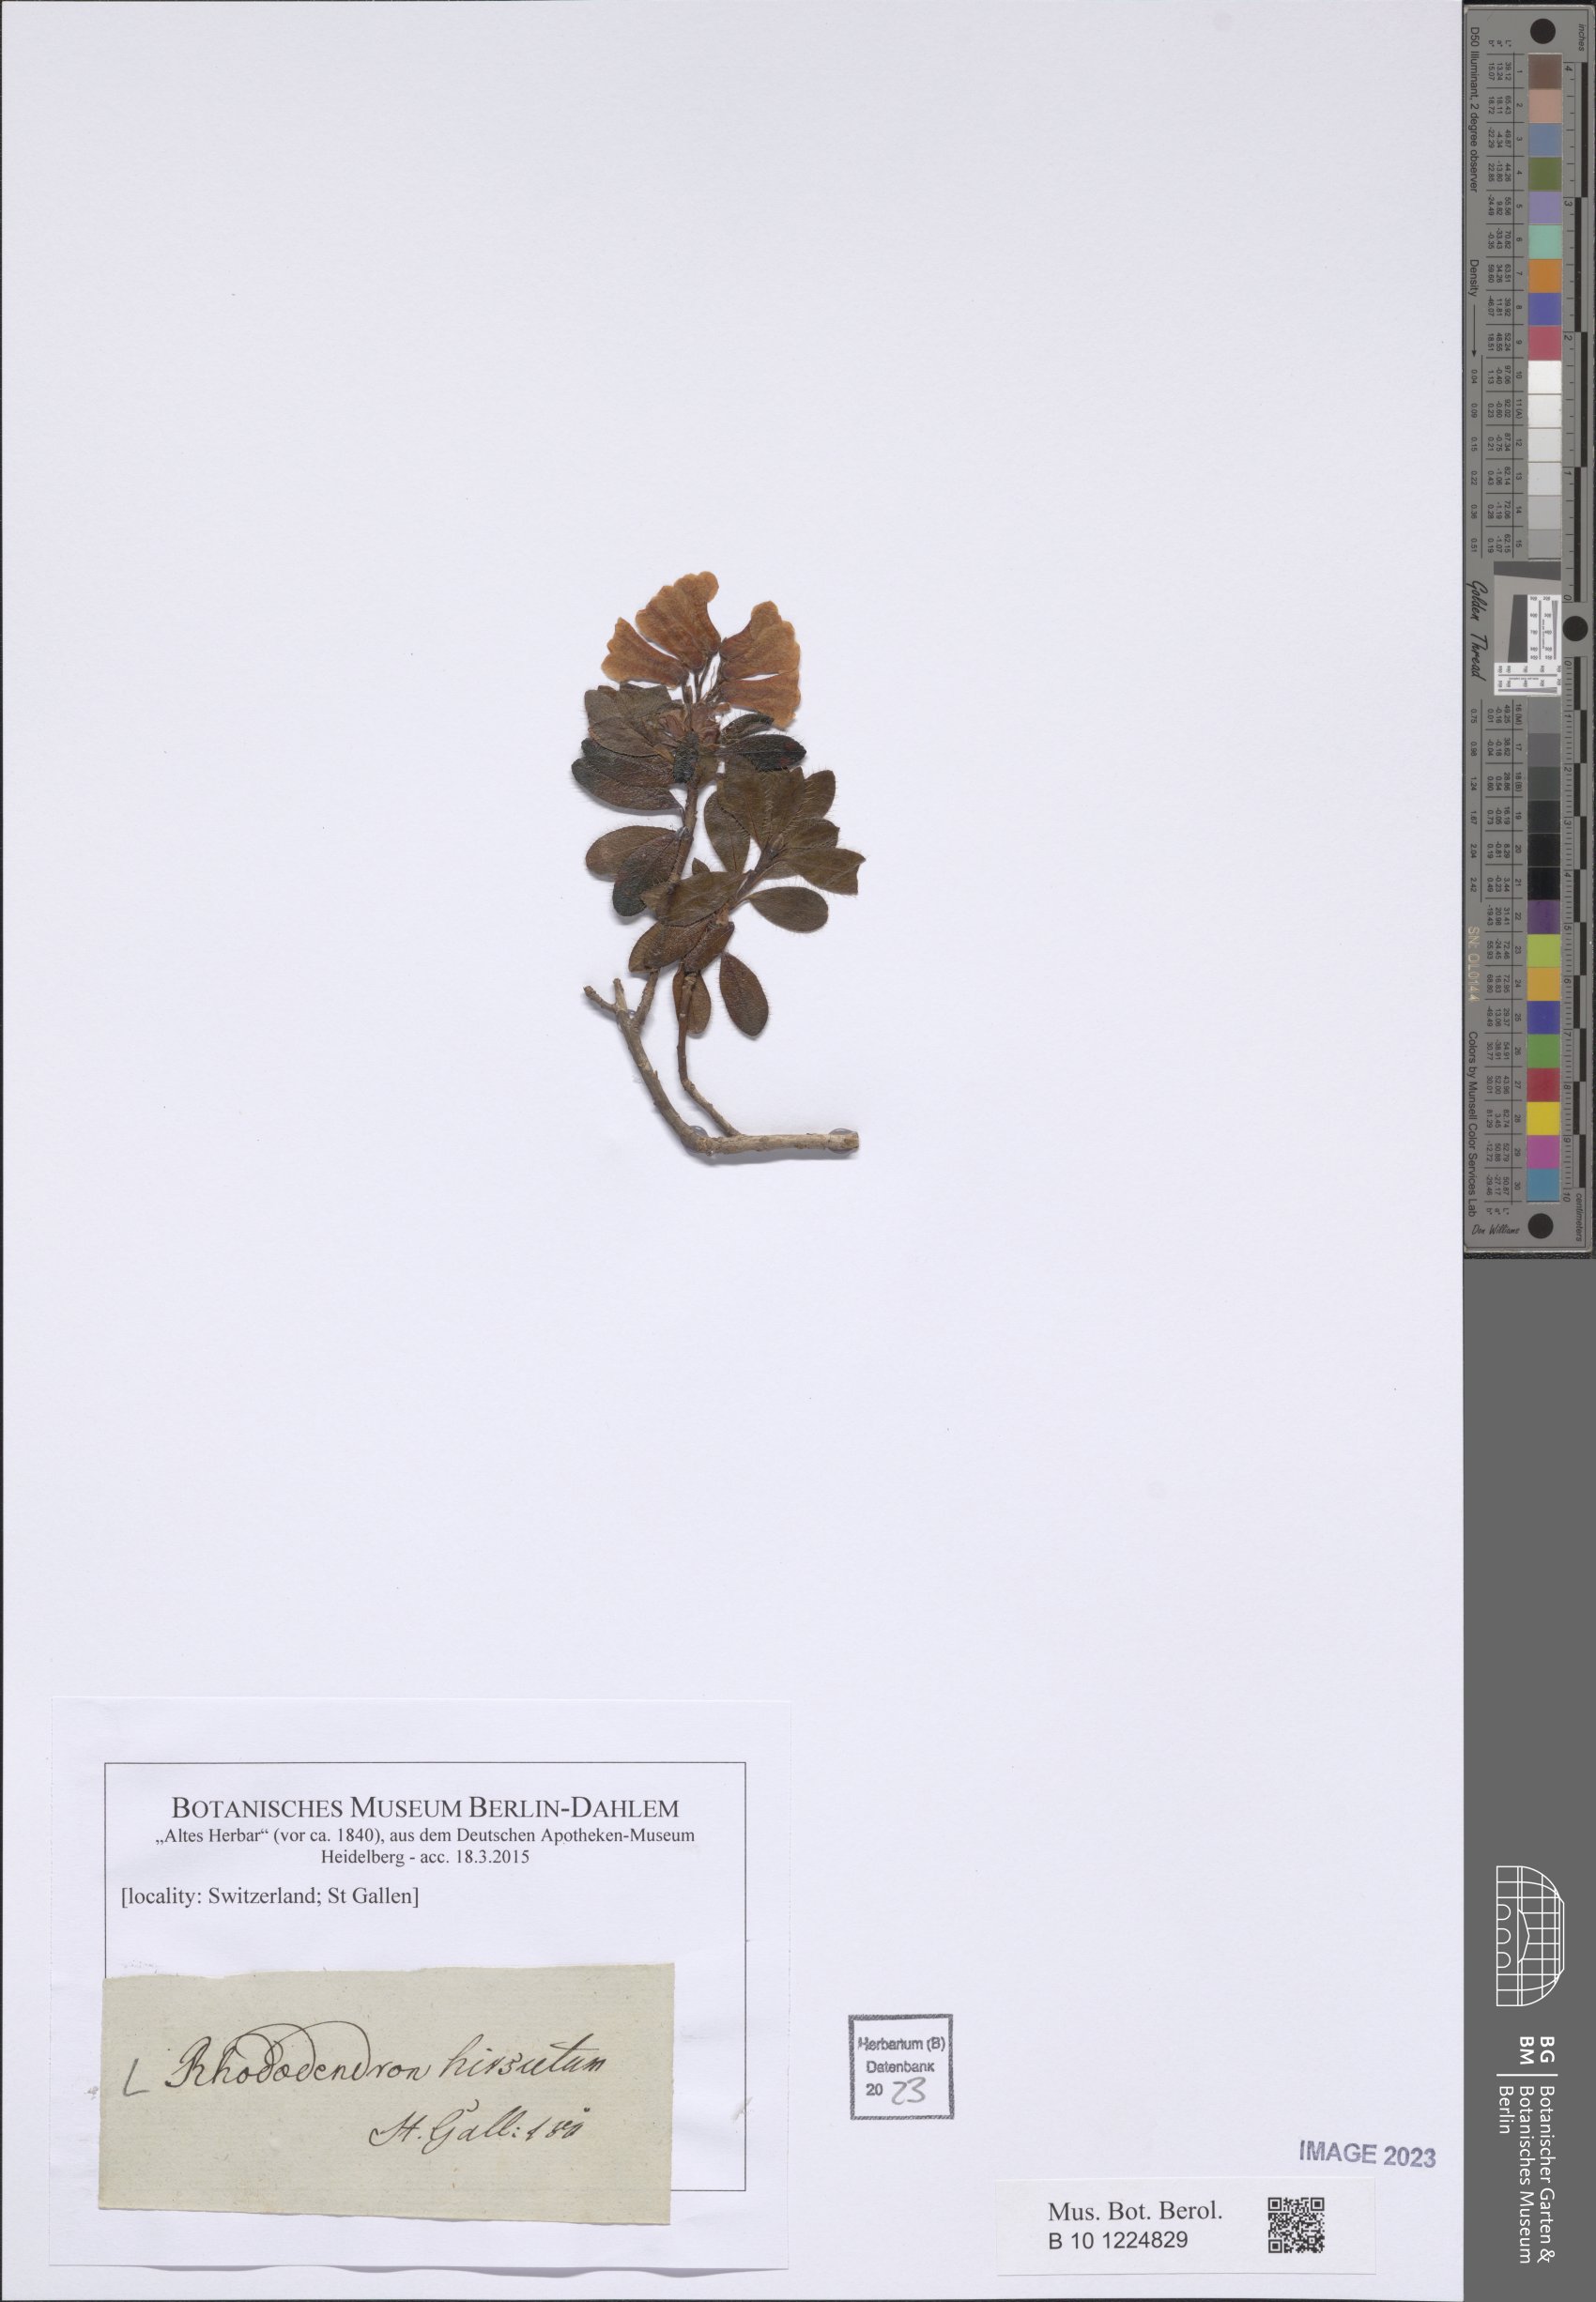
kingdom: Plantae
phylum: Tracheophyta
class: Magnoliopsida
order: Ericales
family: Ericaceae
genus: Rhododendron
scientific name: Rhododendron hirsutum
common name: Hairy alpenrose
